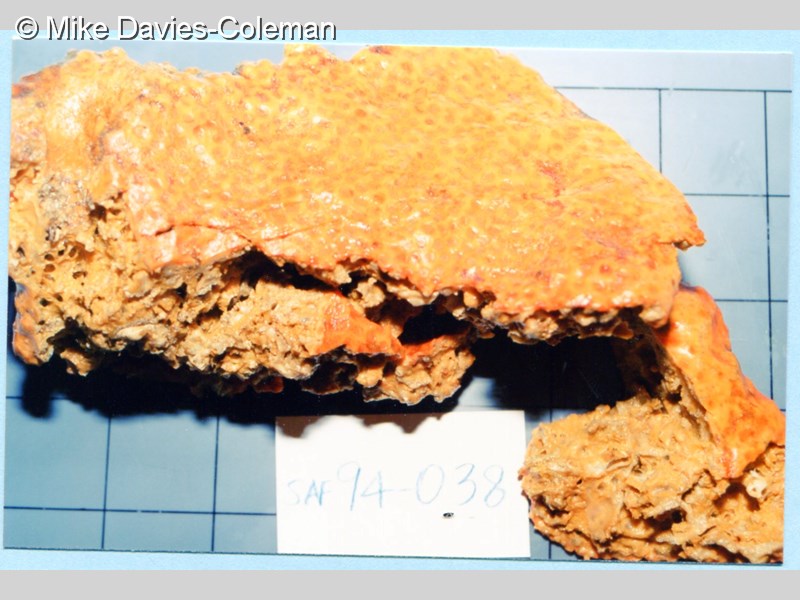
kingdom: Animalia
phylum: Porifera
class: Demospongiae
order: Clionaida
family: Clionaidae
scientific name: Clionaidae
